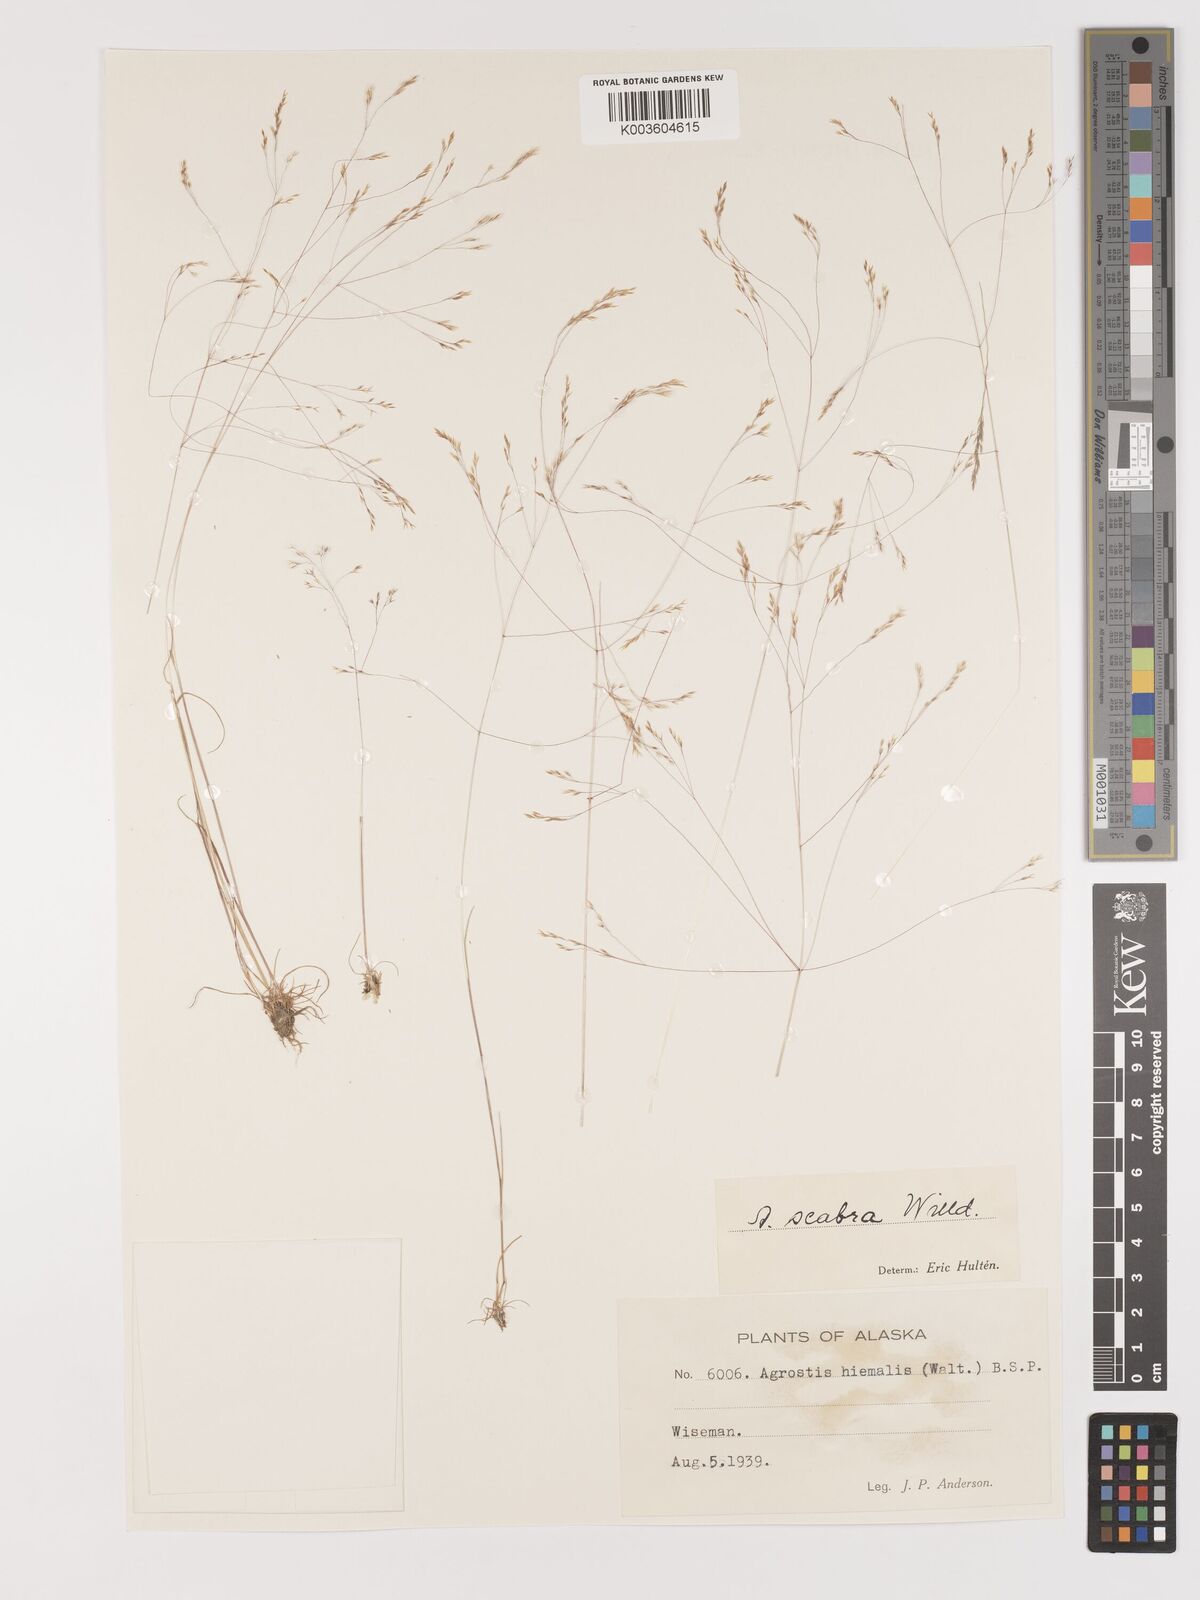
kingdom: Plantae
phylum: Tracheophyta
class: Liliopsida
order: Poales
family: Poaceae
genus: Agrostis
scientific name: Agrostis
